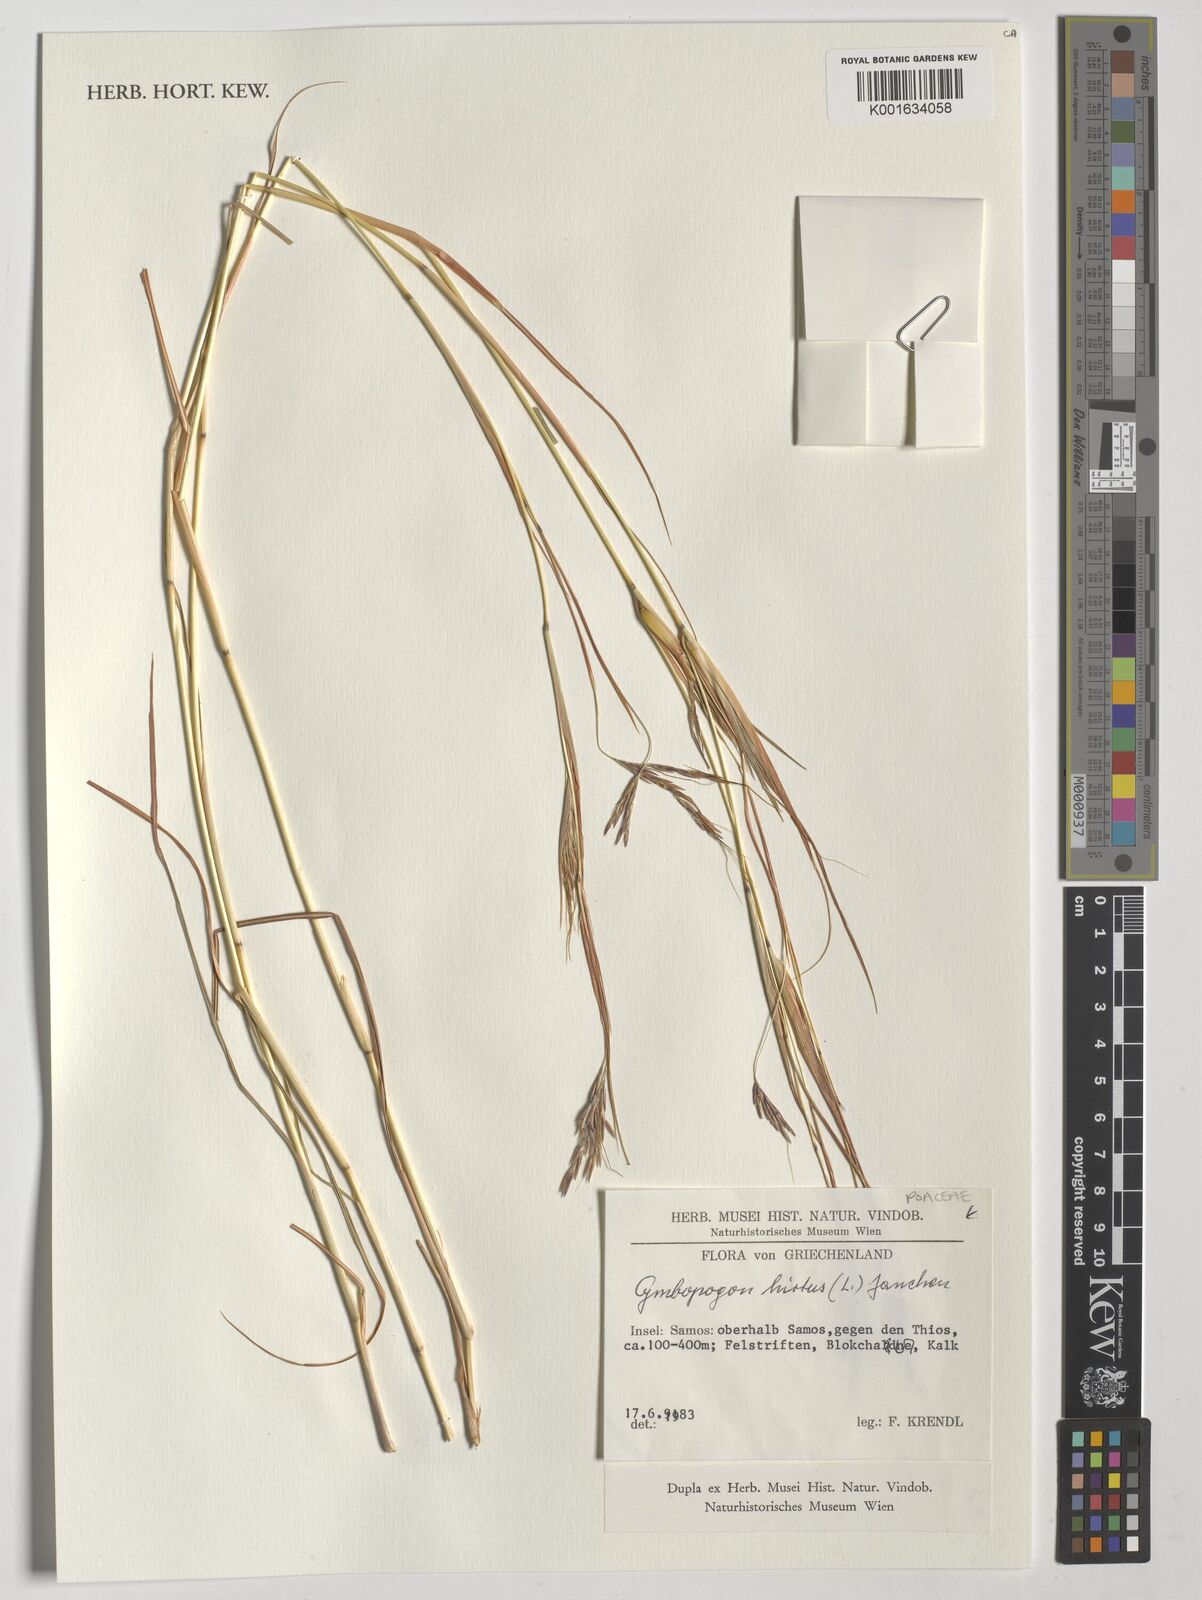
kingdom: Plantae
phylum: Tracheophyta
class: Liliopsida
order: Poales
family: Poaceae
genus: Hyparrhenia
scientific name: Hyparrhenia hirta
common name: Thatching grass
